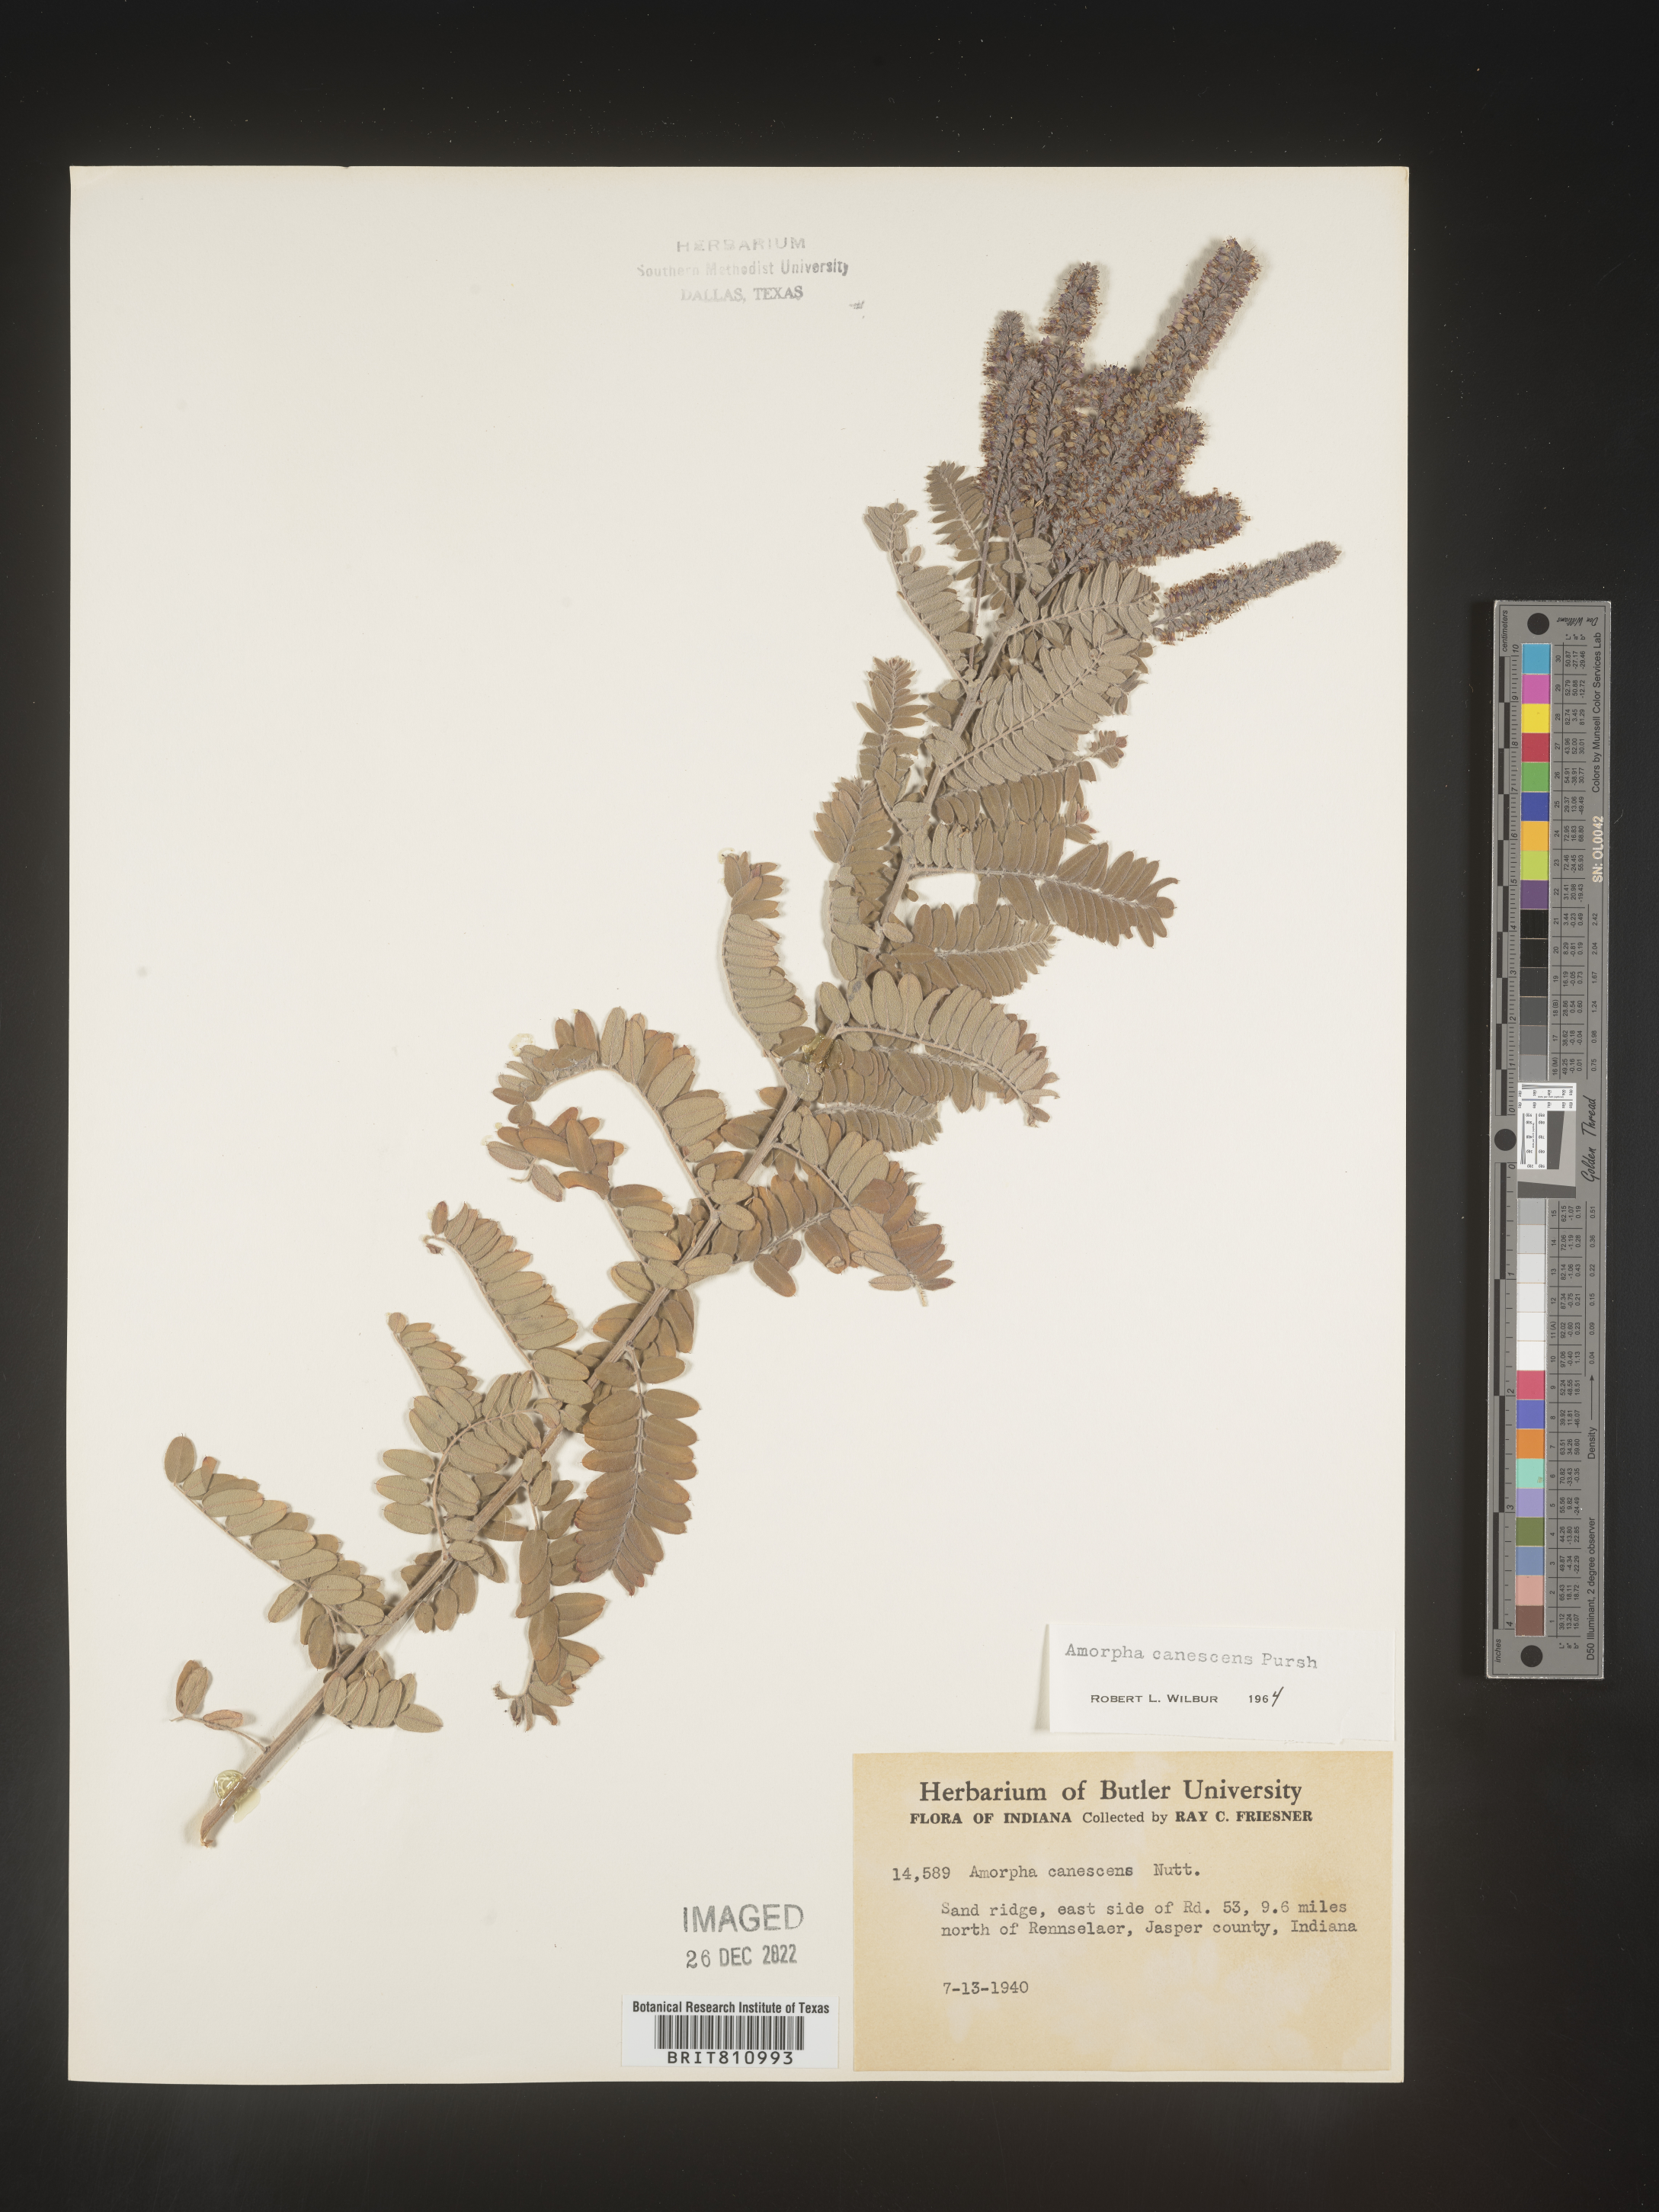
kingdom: Plantae
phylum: Tracheophyta
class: Magnoliopsida
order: Fabales
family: Fabaceae
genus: Amorpha
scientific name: Amorpha canescens
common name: Leadplant
